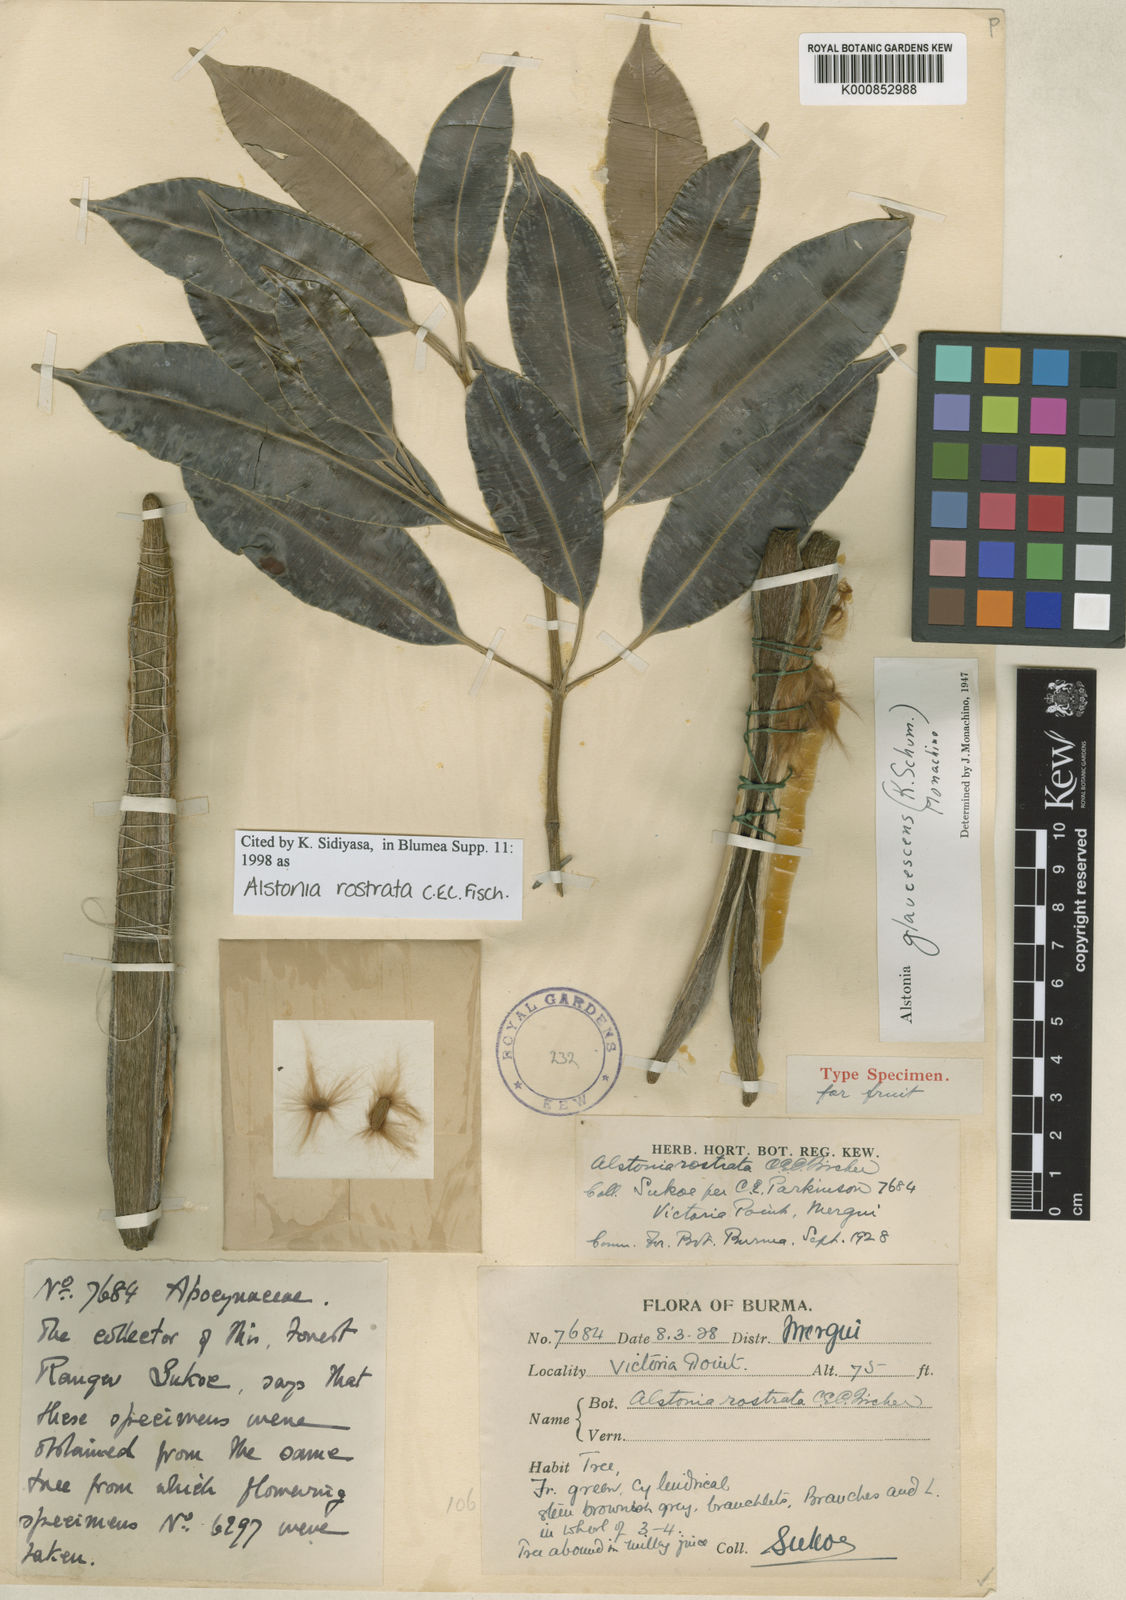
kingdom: Plantae
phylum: Tracheophyta
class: Magnoliopsida
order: Gentianales
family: Apocynaceae
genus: Alstonia
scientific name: Alstonia rostrata
